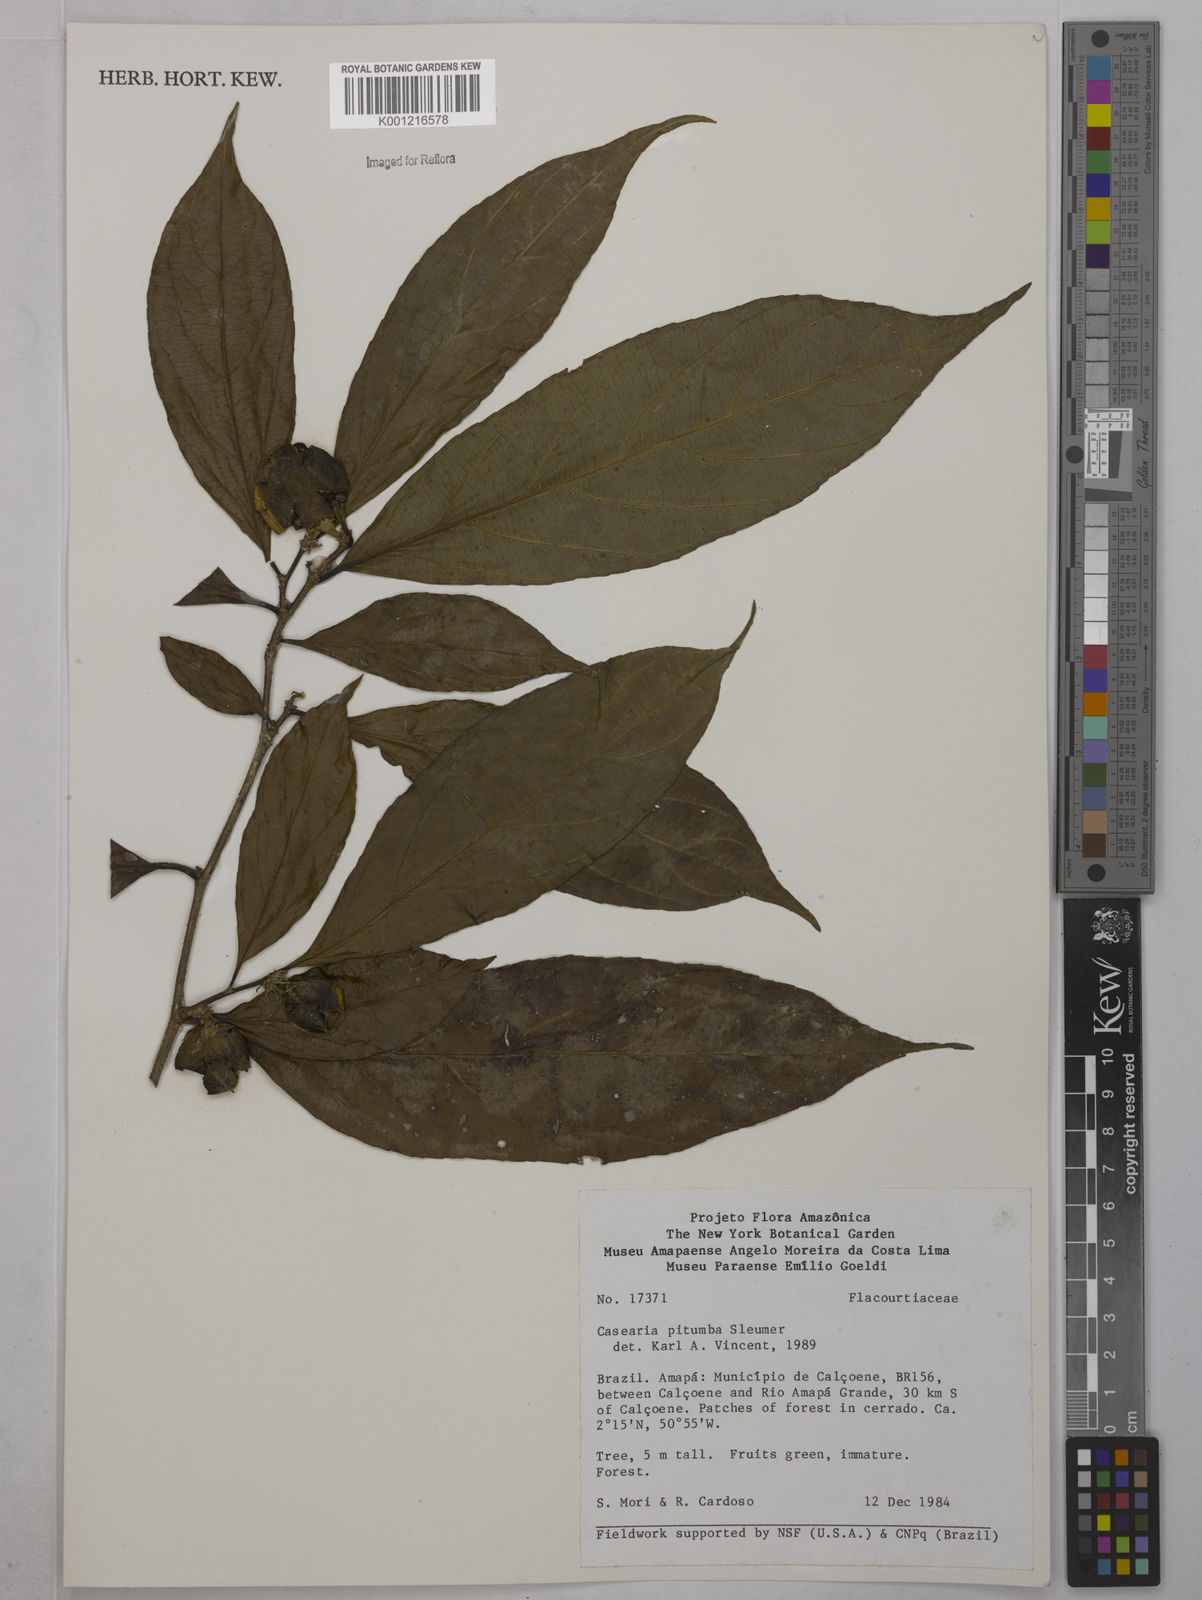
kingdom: Plantae
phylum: Tracheophyta
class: Magnoliopsida
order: Malpighiales
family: Salicaceae
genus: Casearia
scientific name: Casearia pitumba
